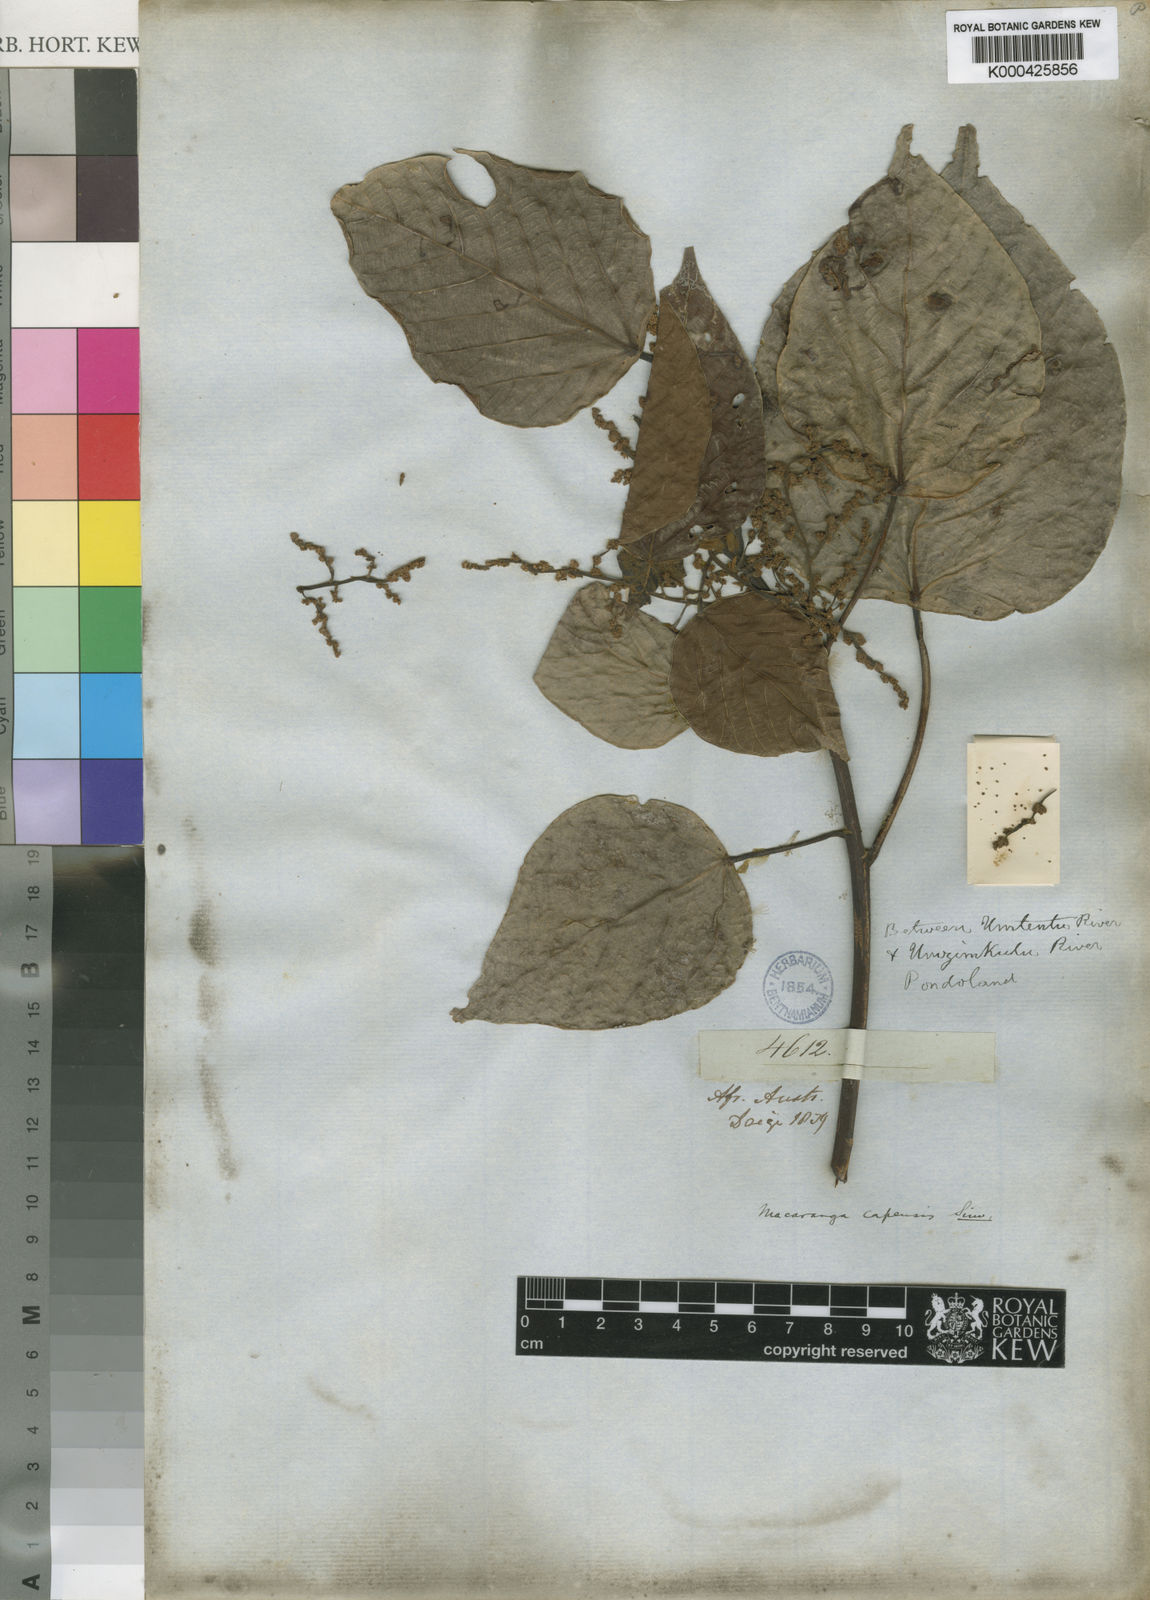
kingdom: Plantae
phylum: Tracheophyta
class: Magnoliopsida
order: Malpighiales
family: Euphorbiaceae
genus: Macaranga
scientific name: Macaranga capensis
